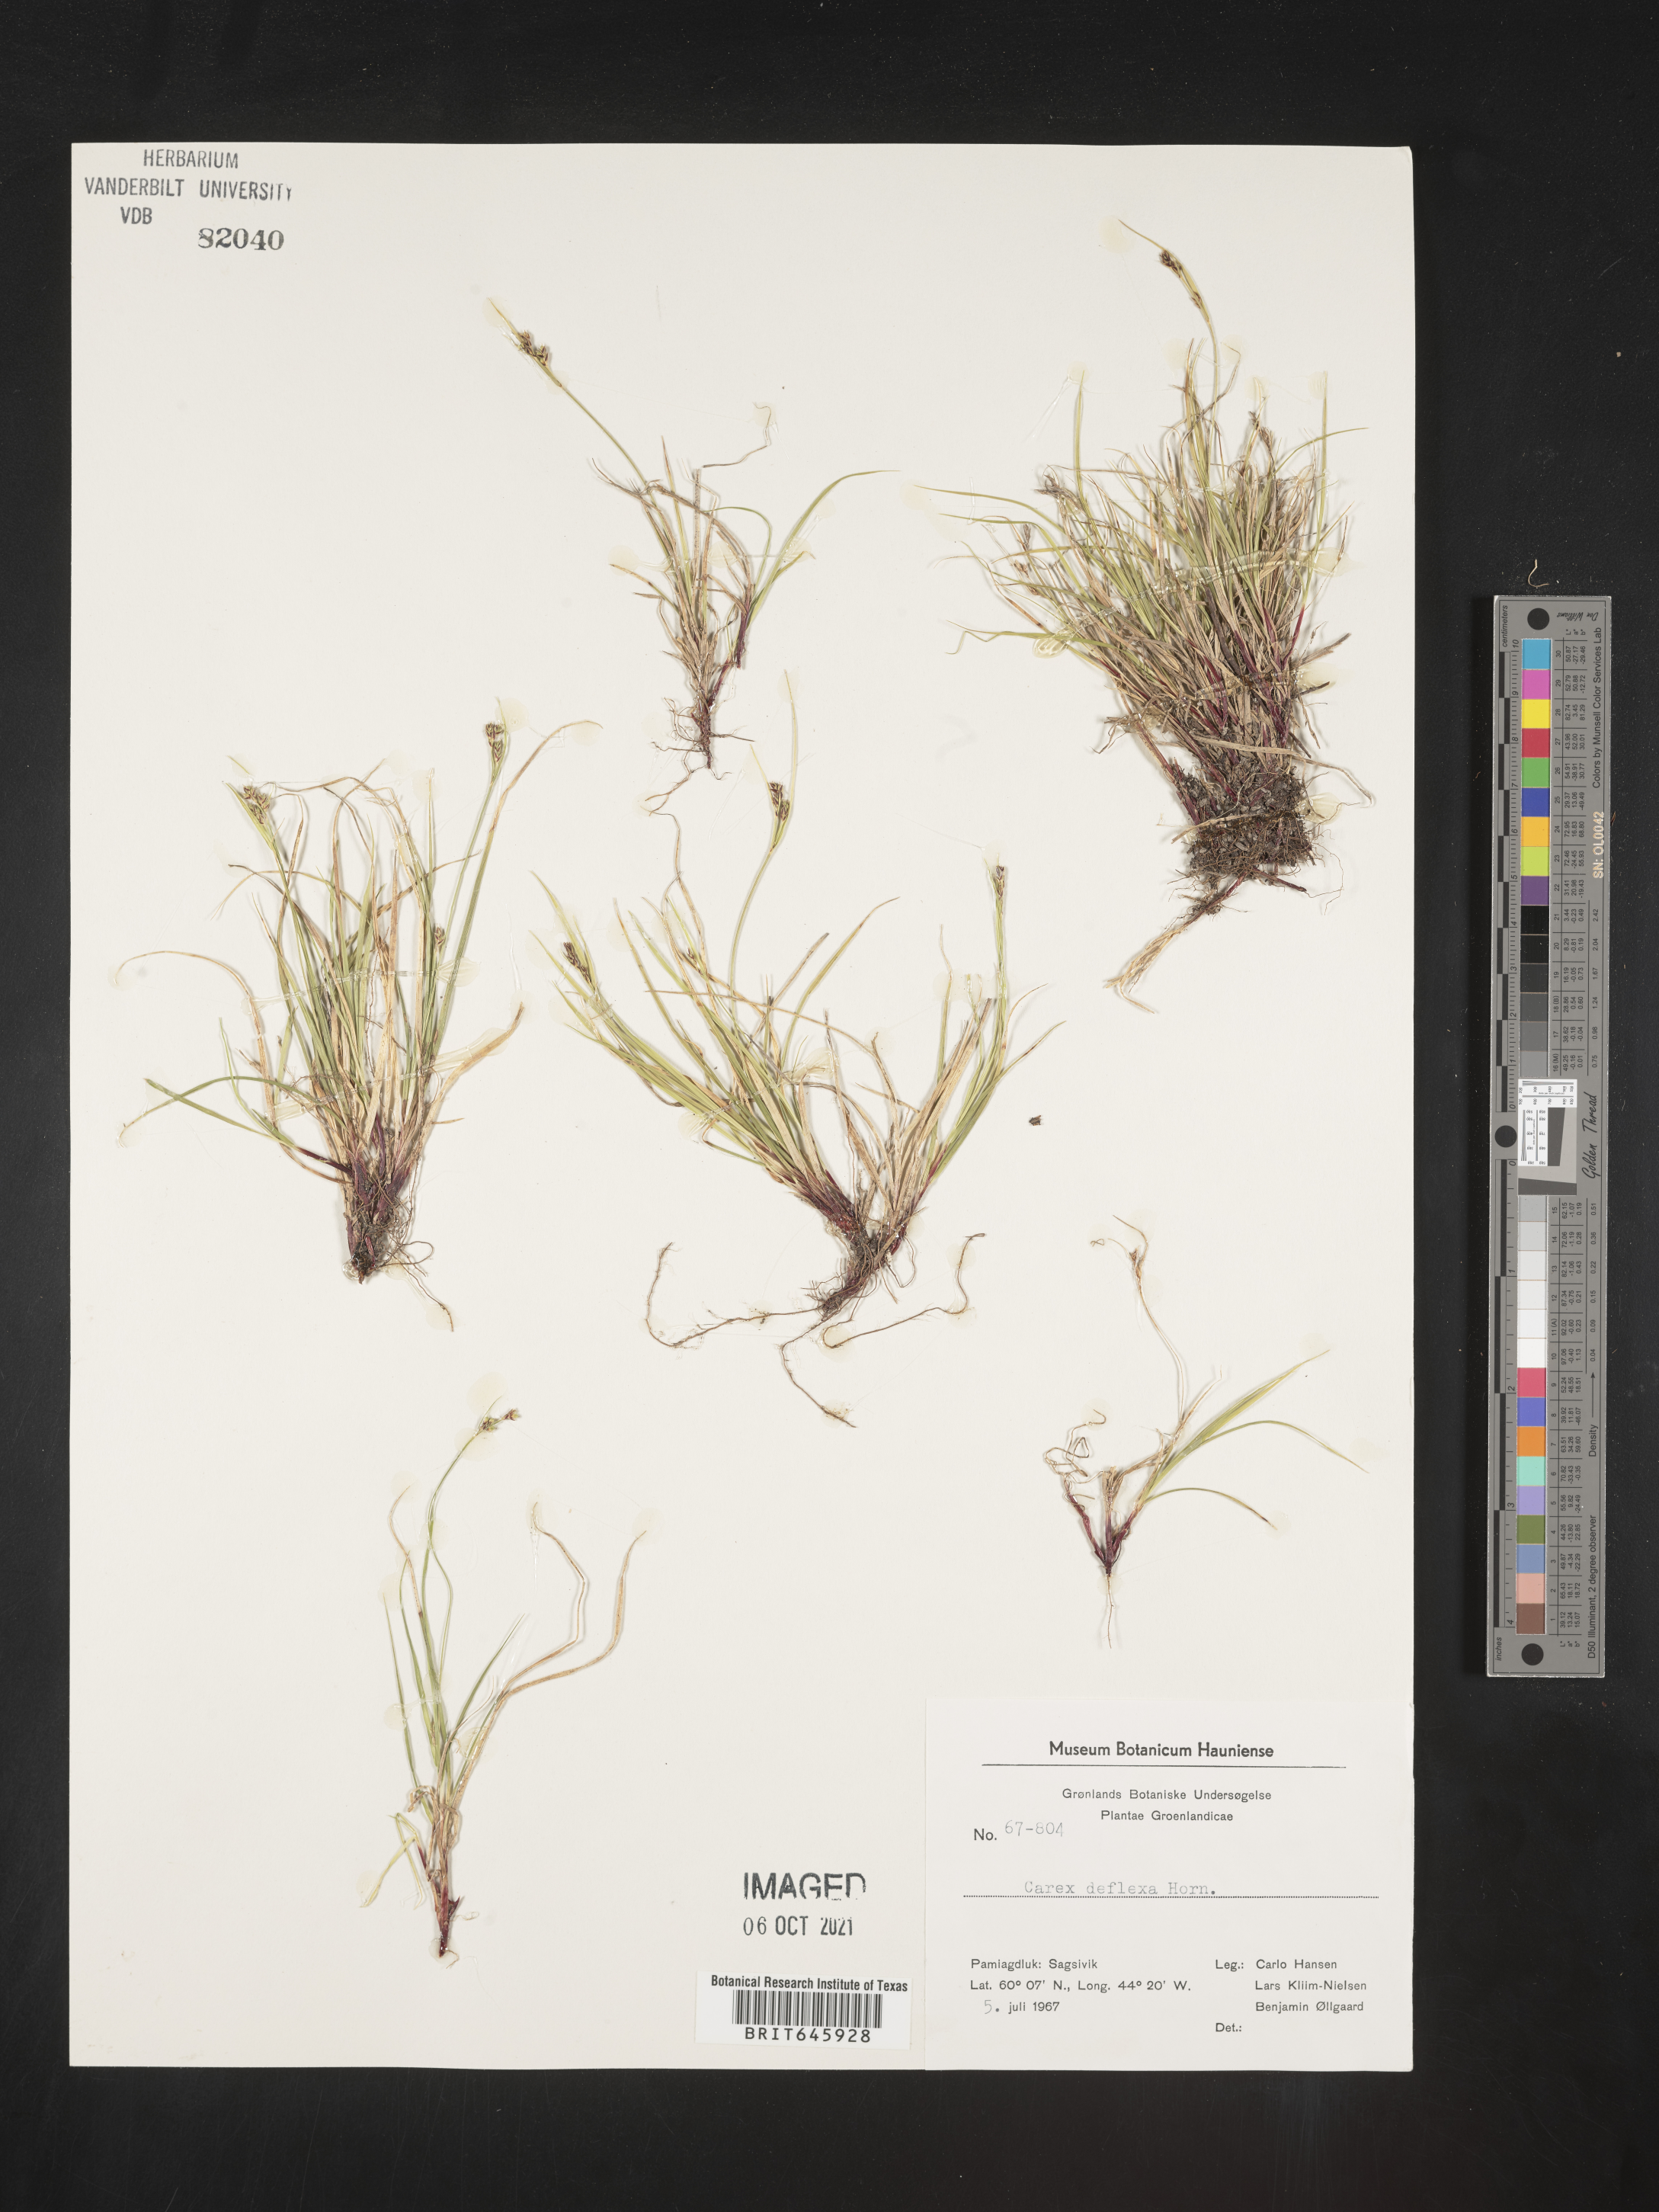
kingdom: Plantae
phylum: Tracheophyta
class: Liliopsida
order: Poales
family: Cyperaceae
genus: Carex
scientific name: Carex deflexa
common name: Bent northern sedge
